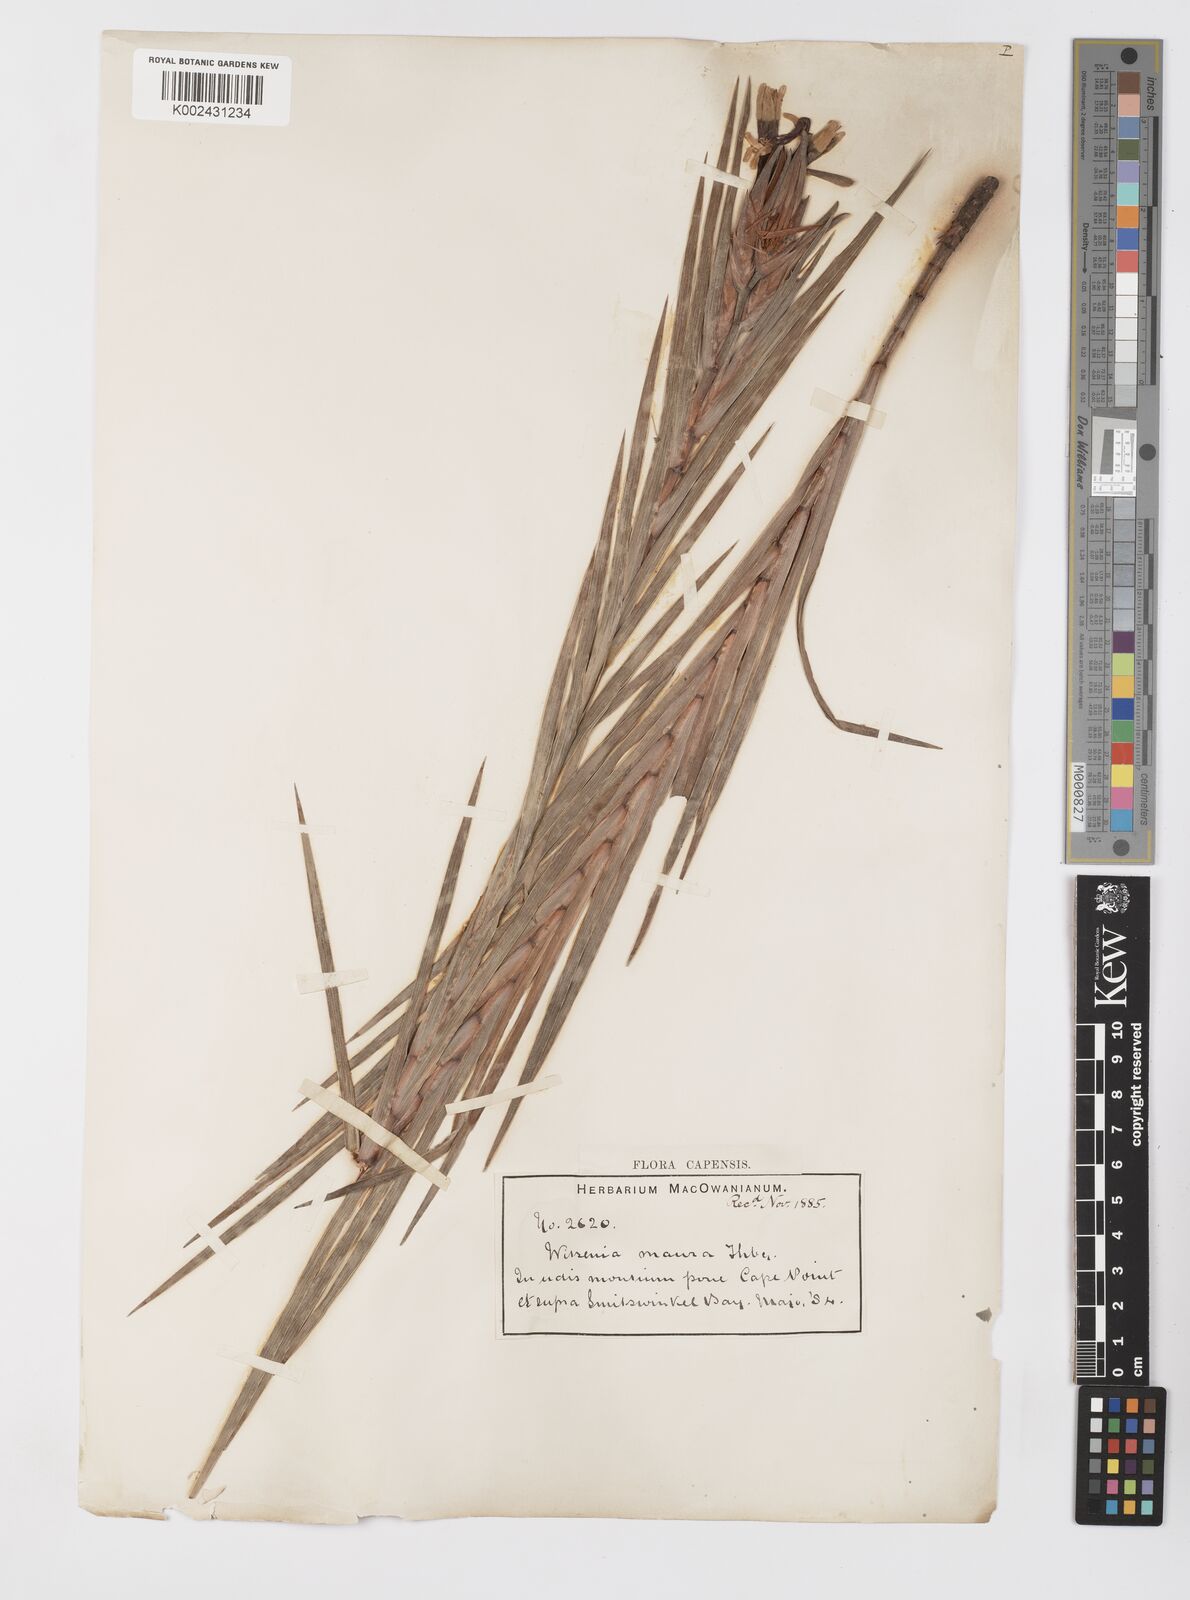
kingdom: Plantae
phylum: Tracheophyta
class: Liliopsida
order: Asparagales
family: Iridaceae
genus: Witsenia
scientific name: Witsenia maura
